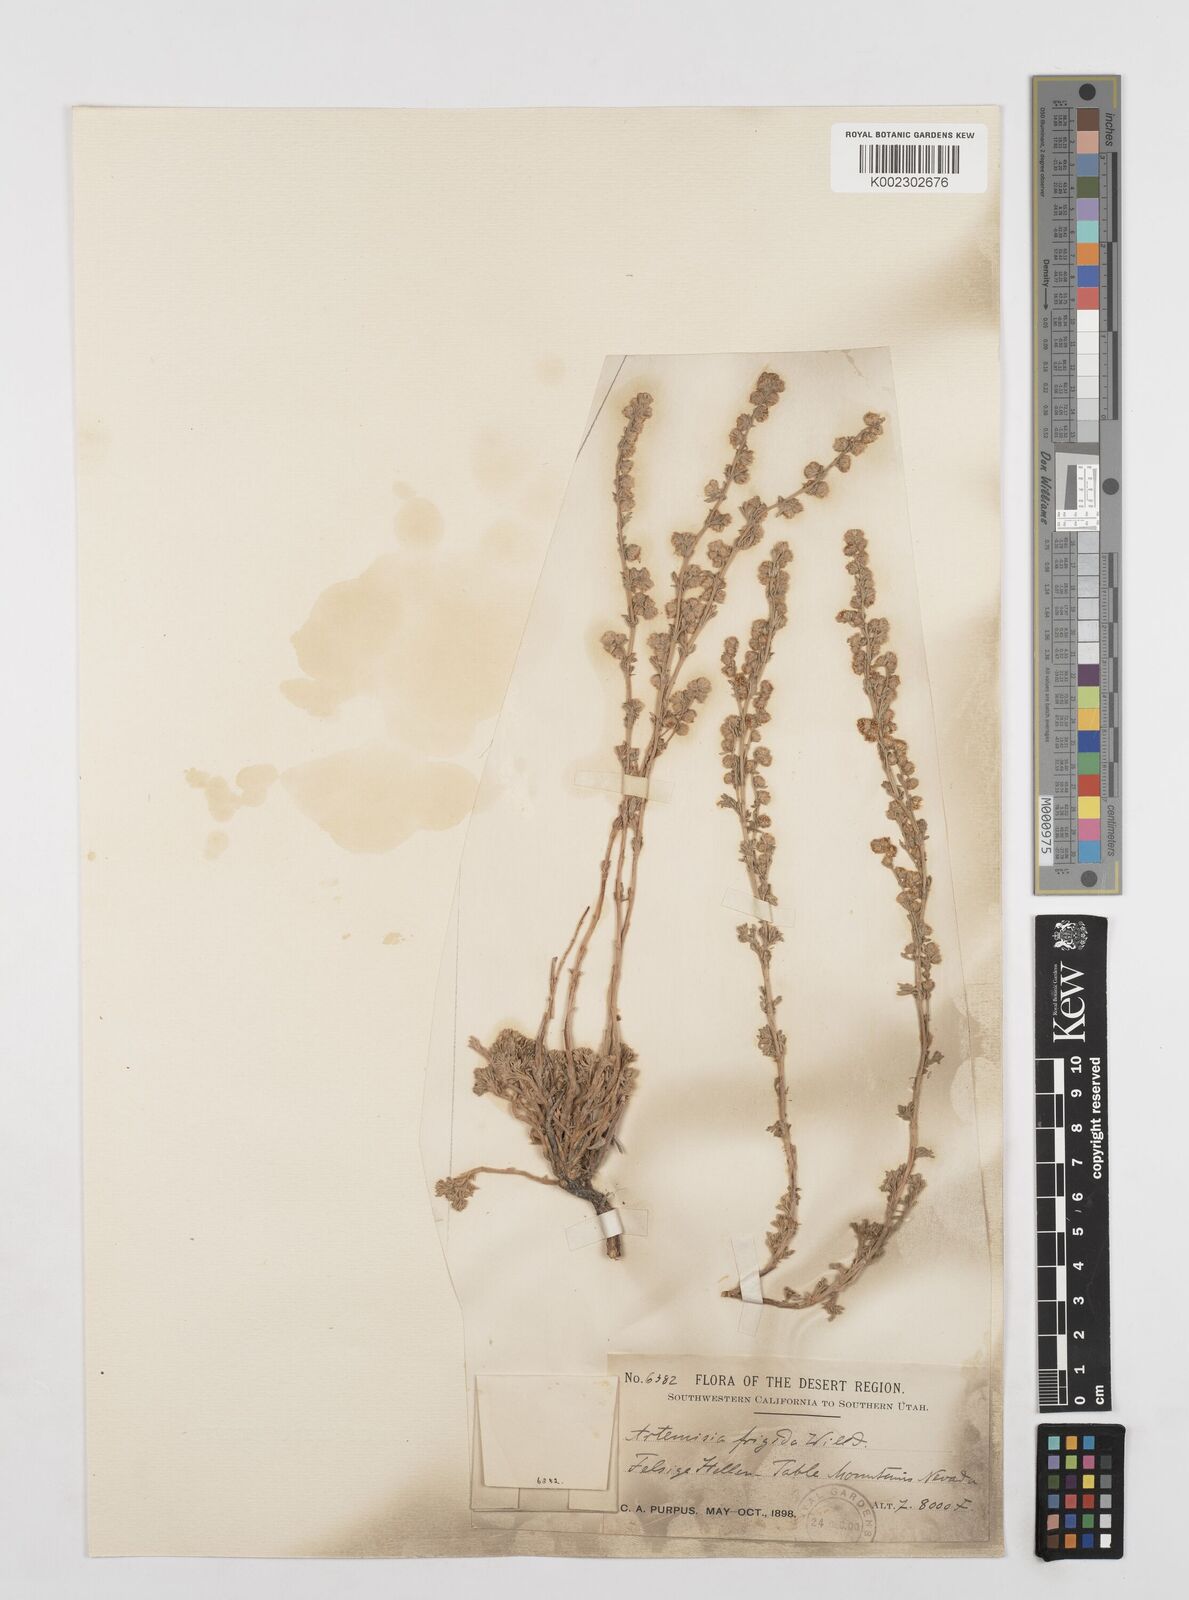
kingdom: Plantae
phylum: Tracheophyta
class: Magnoliopsida
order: Asterales
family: Asteraceae
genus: Artemisia
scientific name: Artemisia frigida
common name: Prairie sagewort
